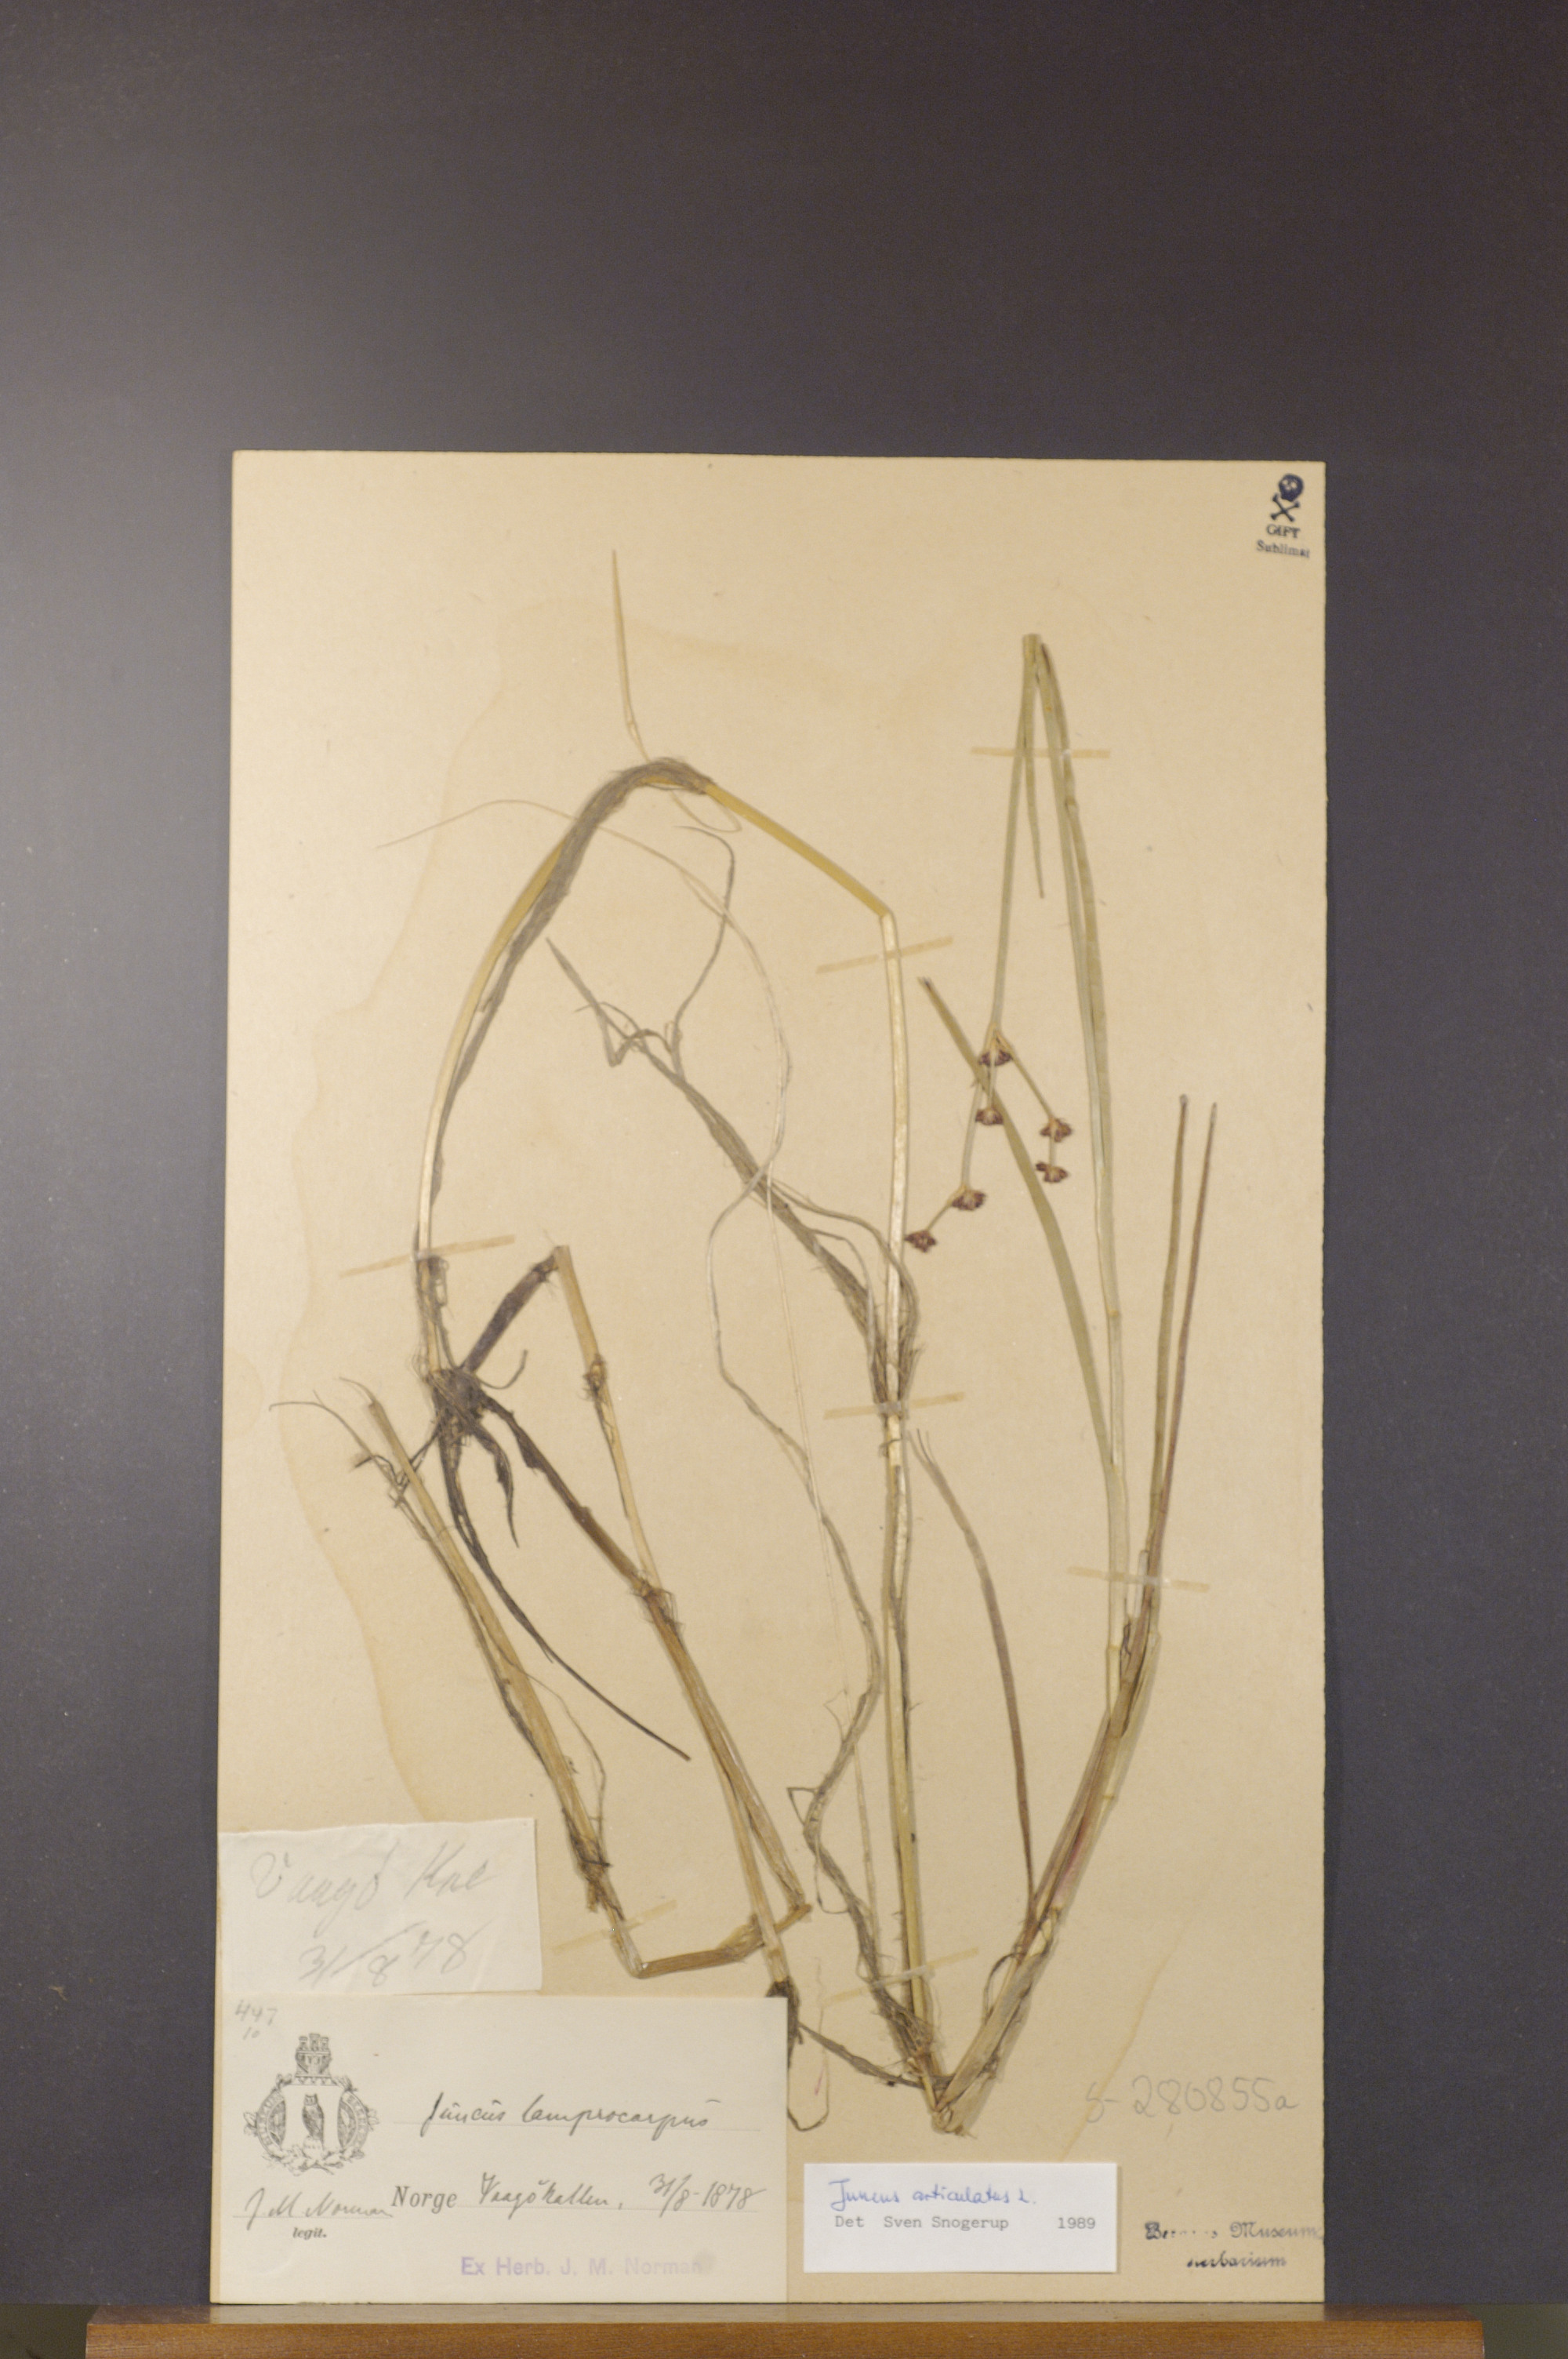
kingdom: Plantae
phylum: Tracheophyta
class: Liliopsida
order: Poales
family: Juncaceae
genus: Juncus
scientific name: Juncus articulatus
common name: Jointed rush
